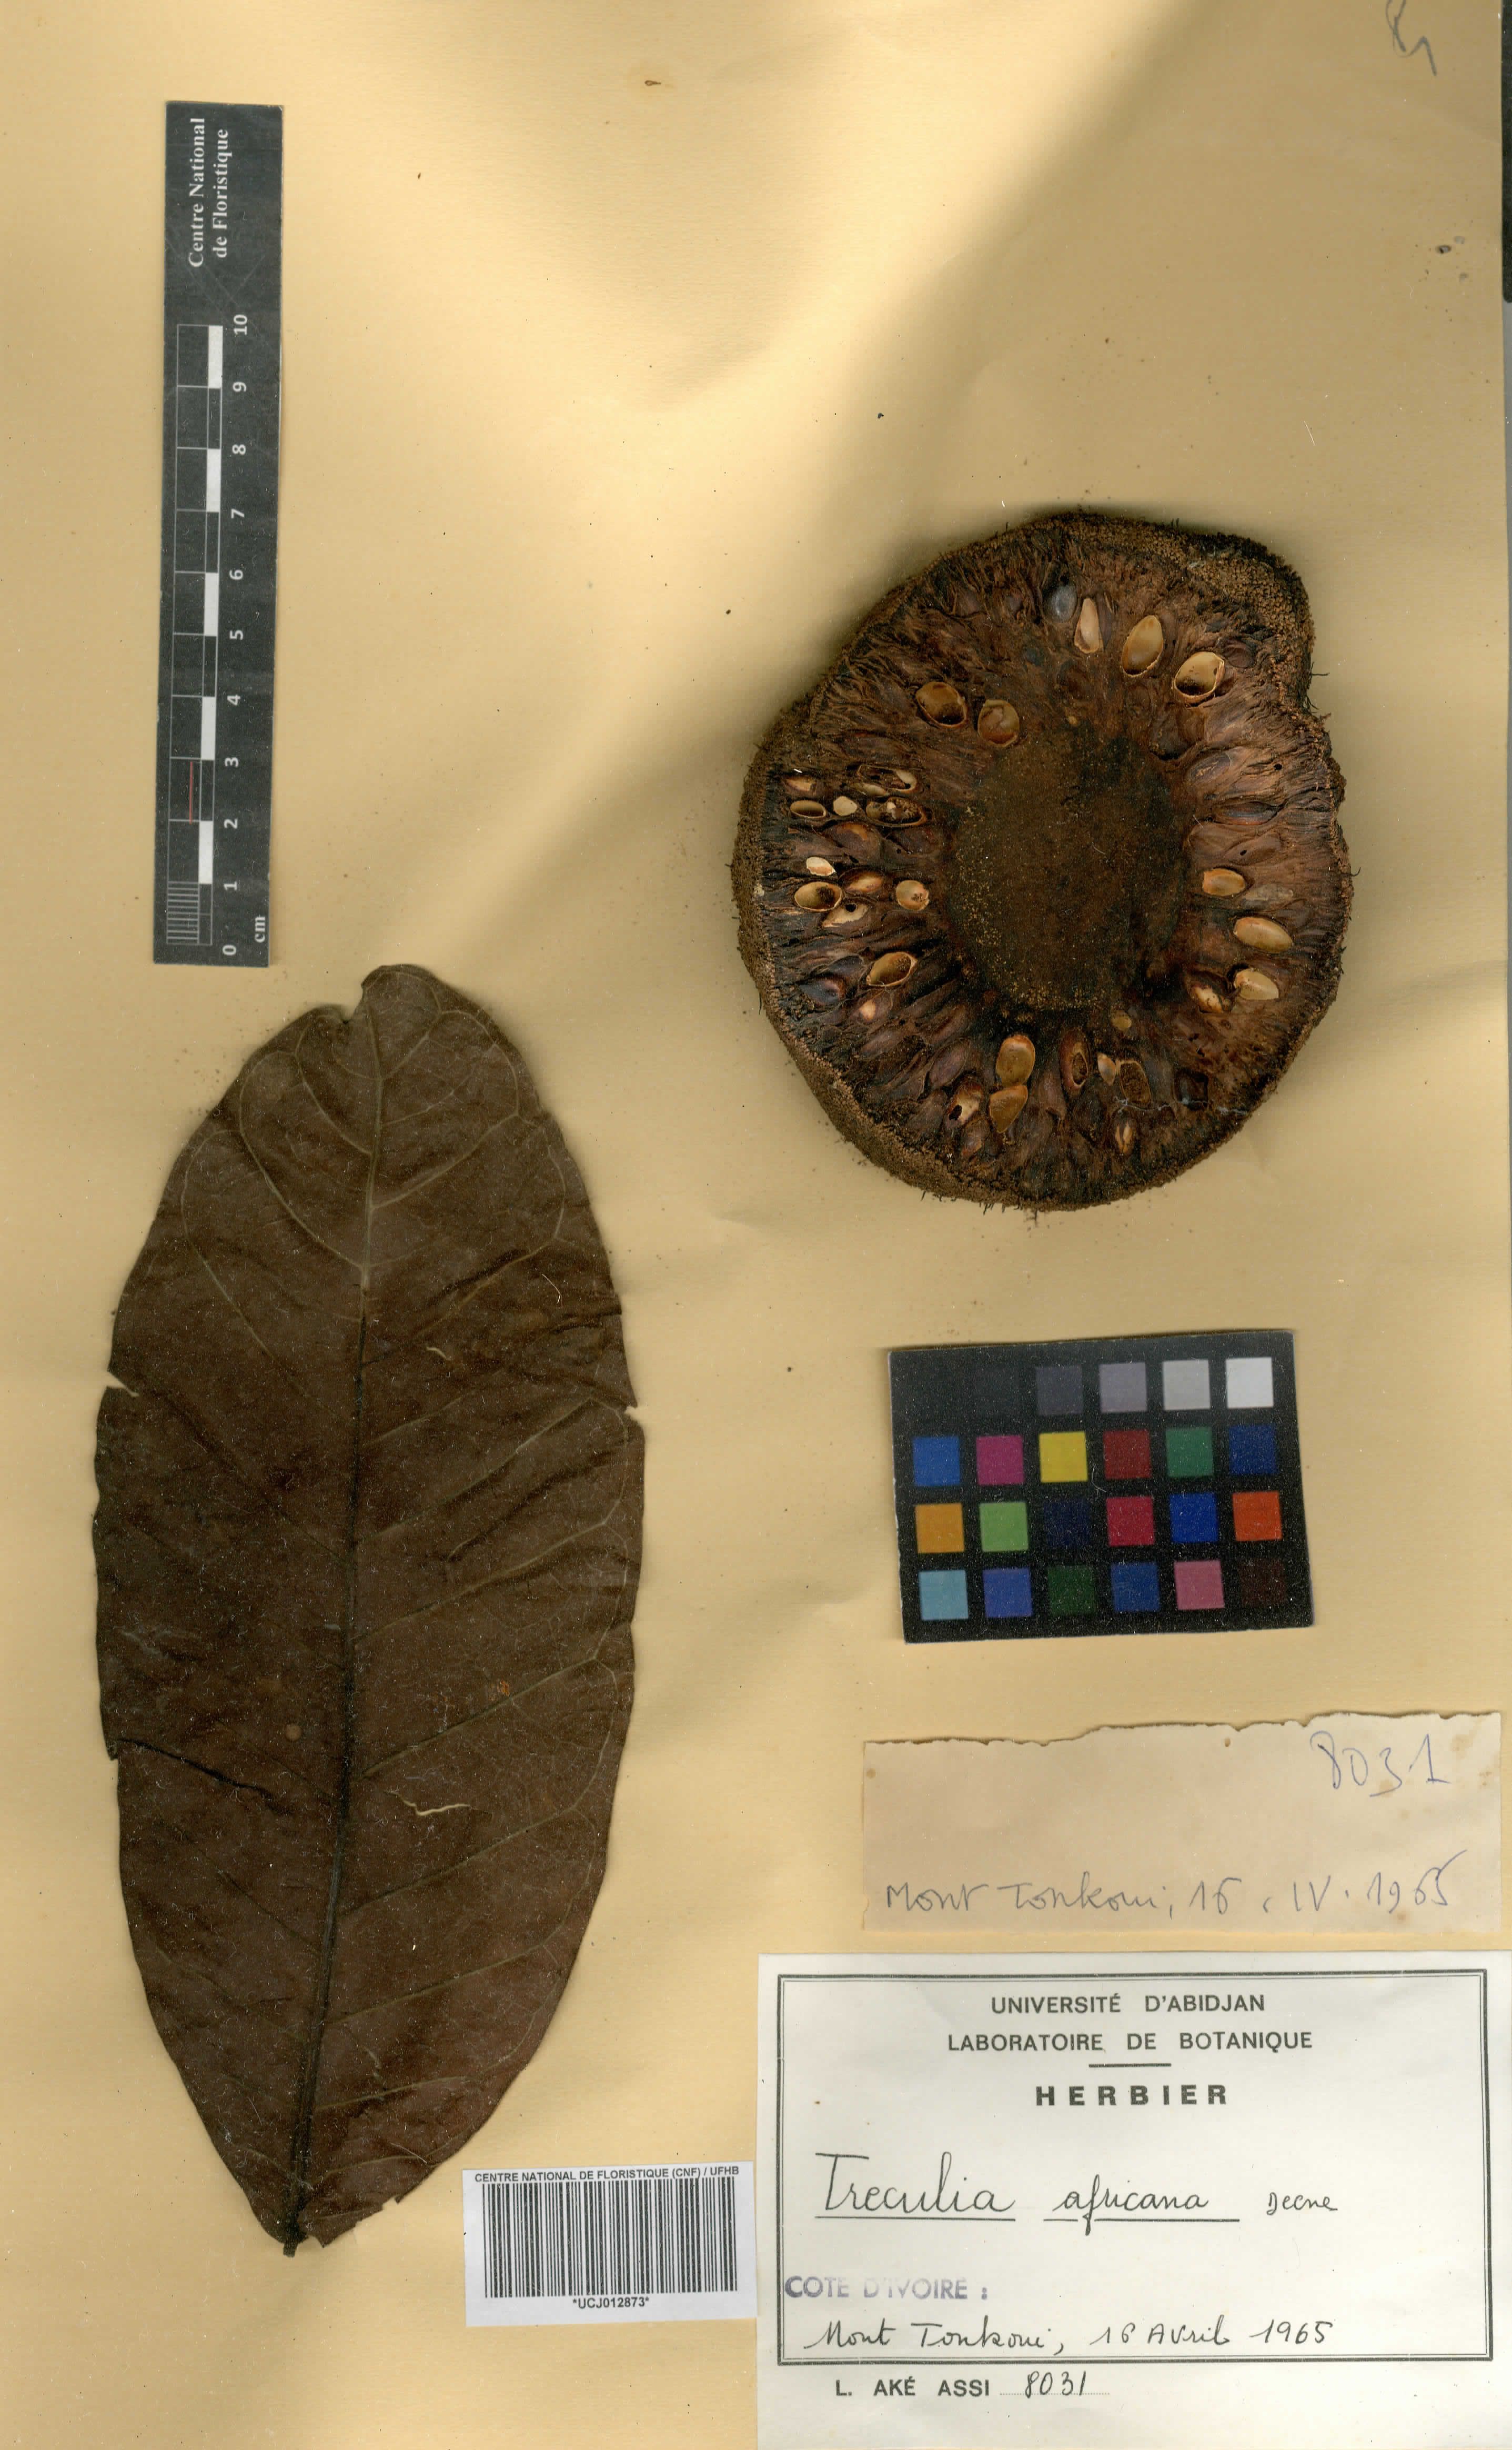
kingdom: Plantae
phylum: Tracheophyta
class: Magnoliopsida
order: Rosales
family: Moraceae
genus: Treculia
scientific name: Treculia africana
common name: African breadfruit
